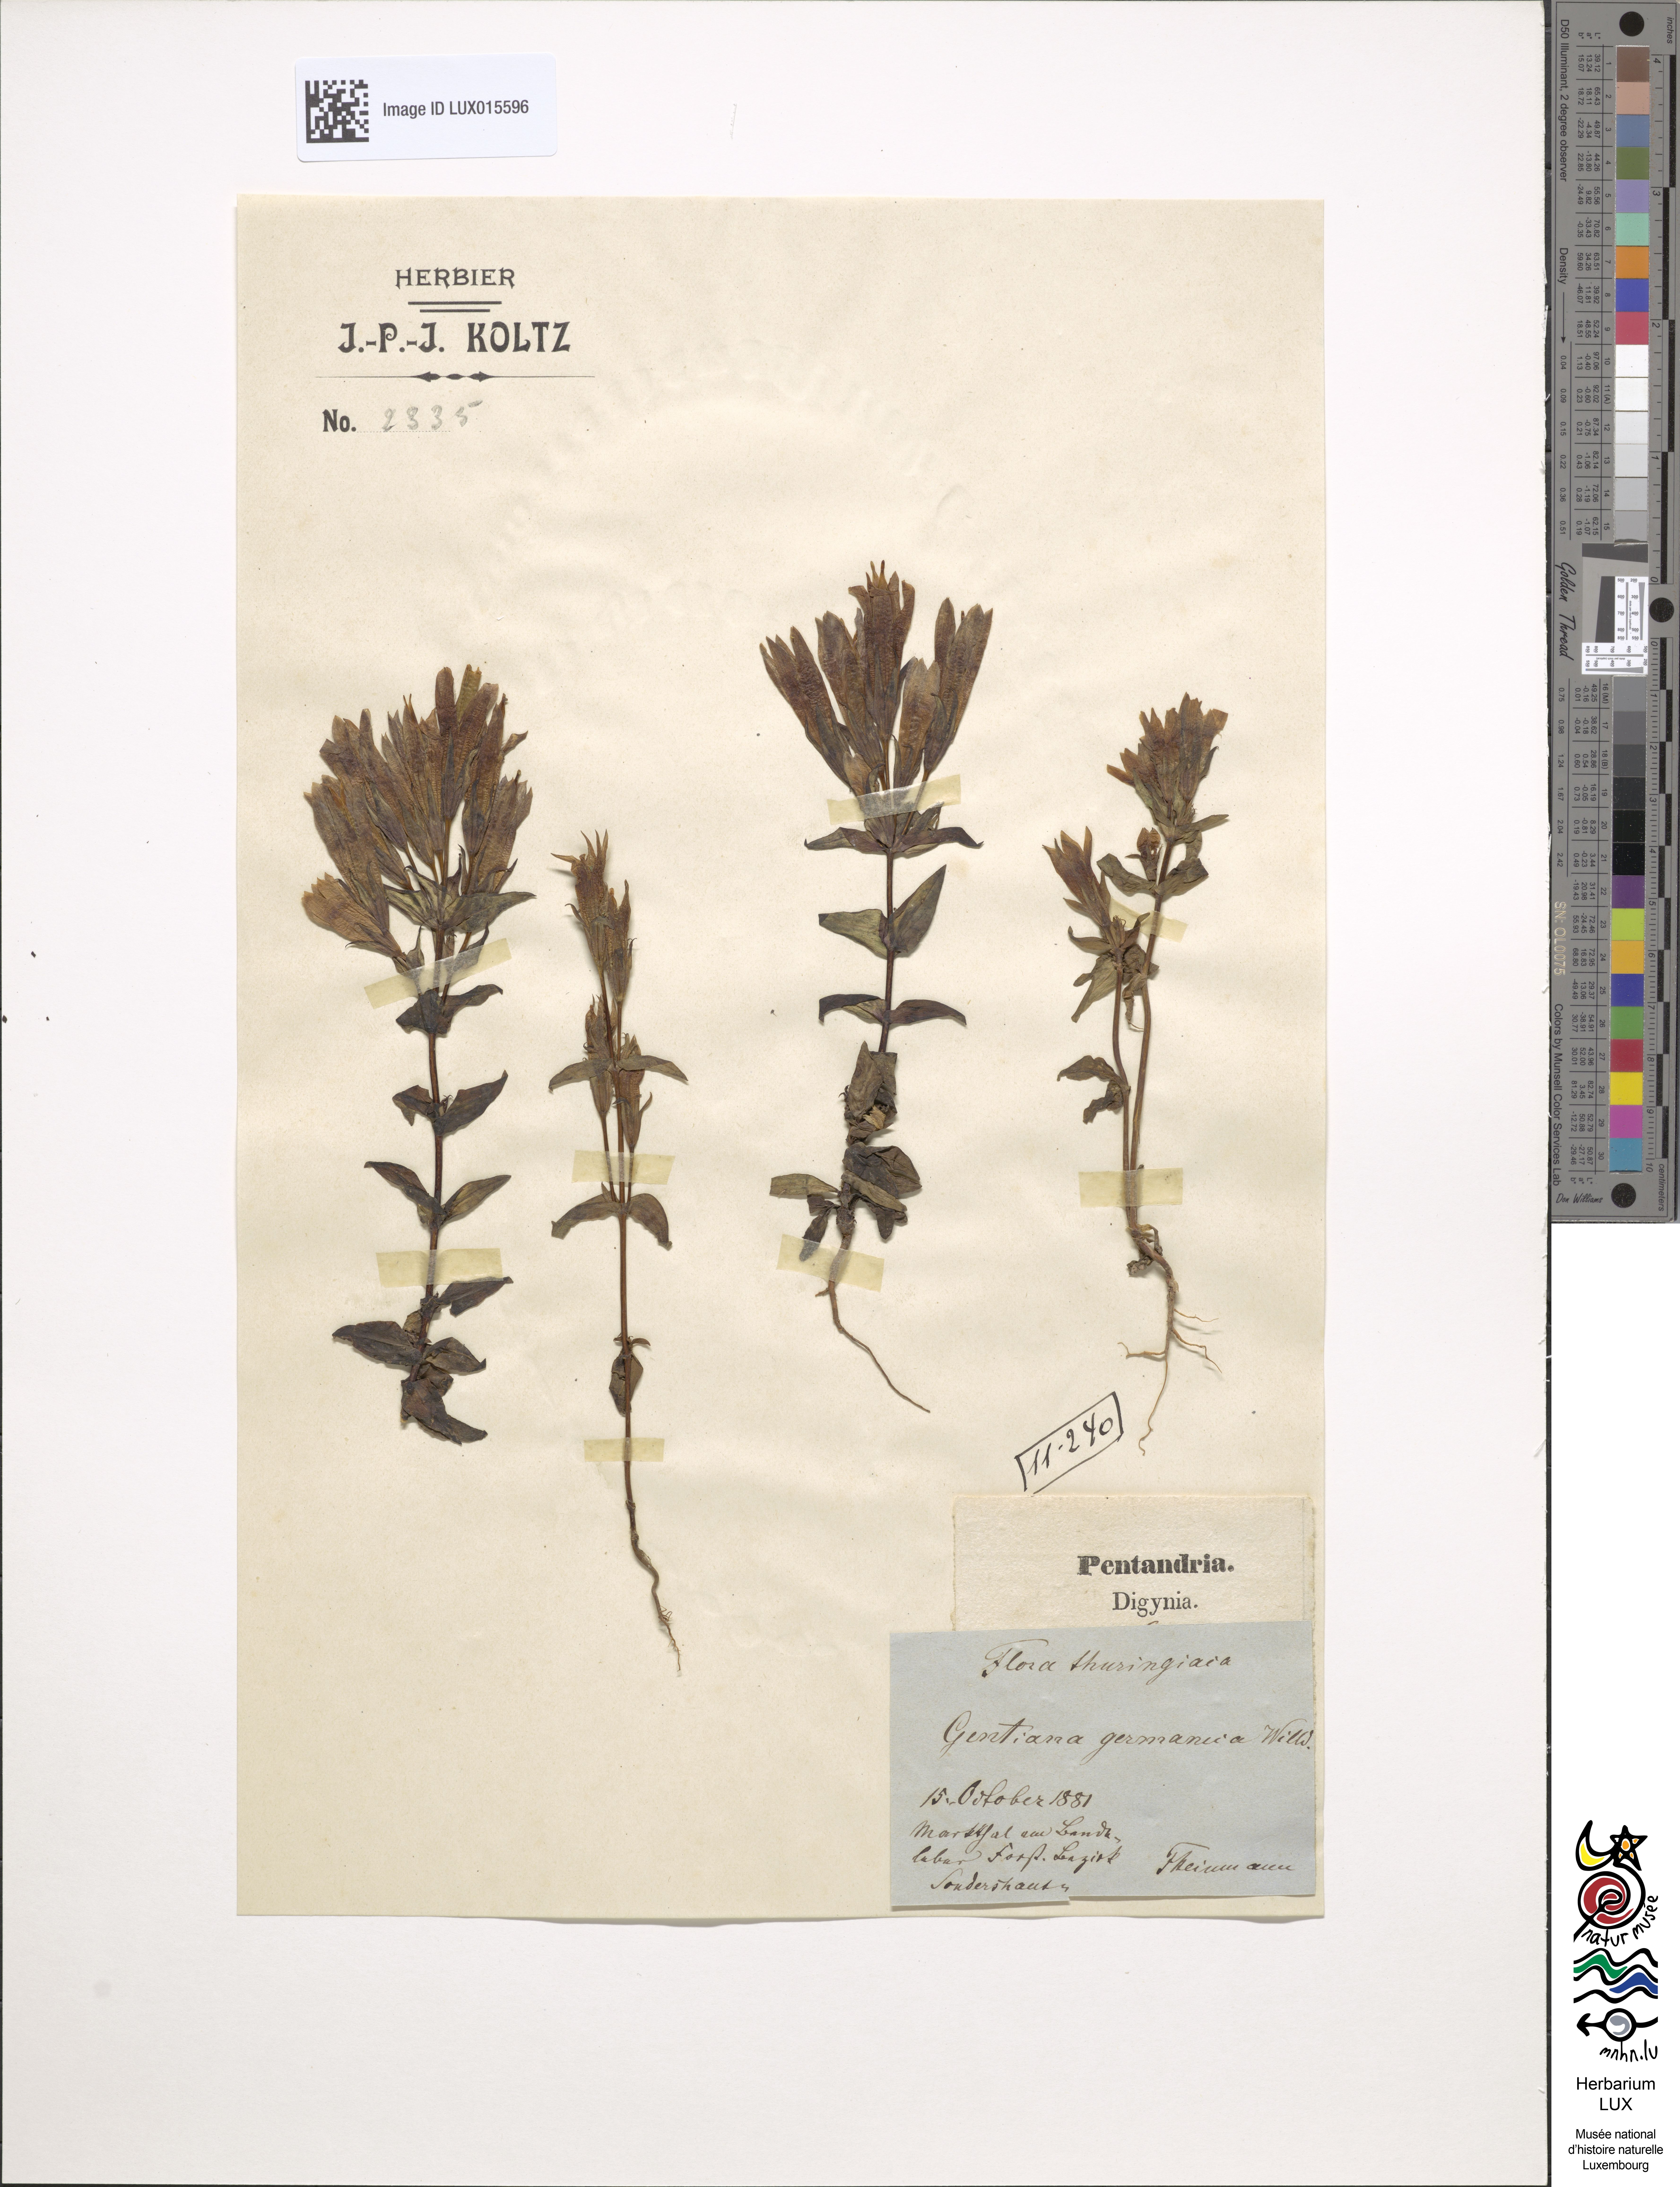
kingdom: Plantae
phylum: Tracheophyta
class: Magnoliopsida
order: Gentianales
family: Gentianaceae
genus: Gentianella
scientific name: Gentianella germanica
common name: Chiltern-gentian
